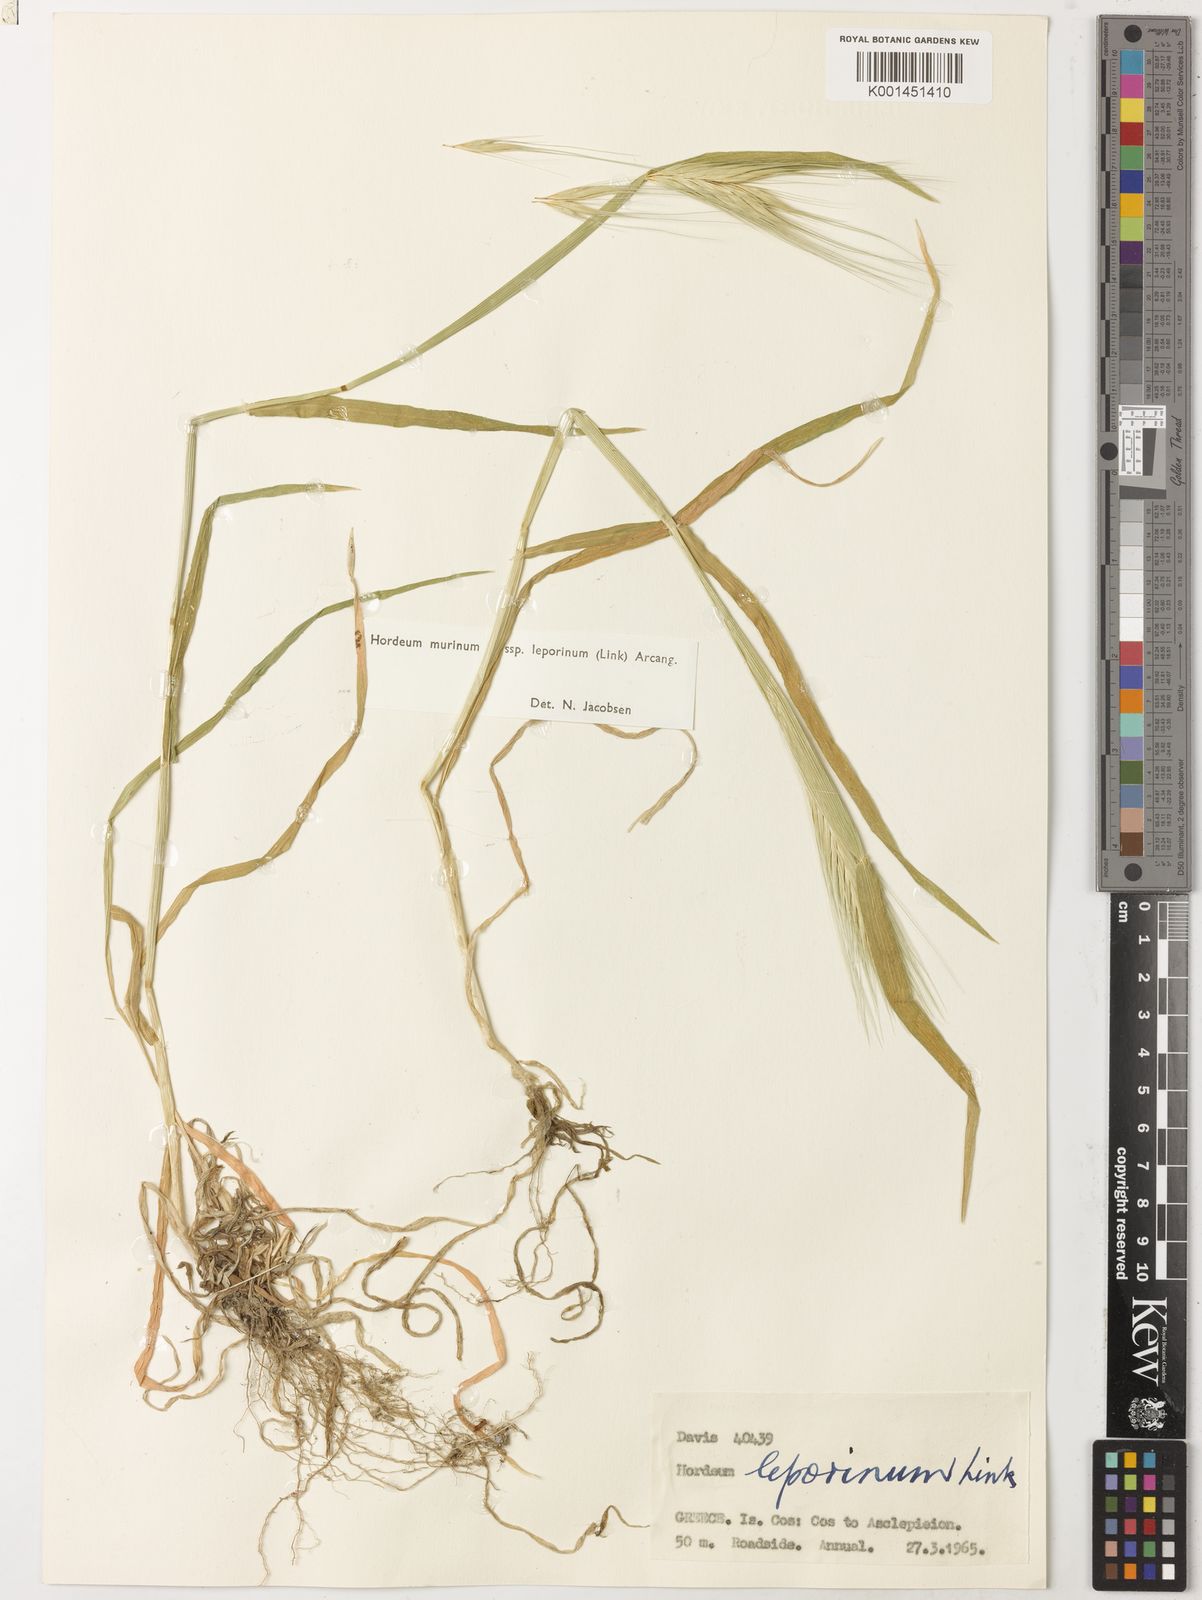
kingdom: Plantae
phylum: Tracheophyta
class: Liliopsida
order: Poales
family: Poaceae
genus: Hordeum
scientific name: Hordeum murinum
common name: Wall barley
